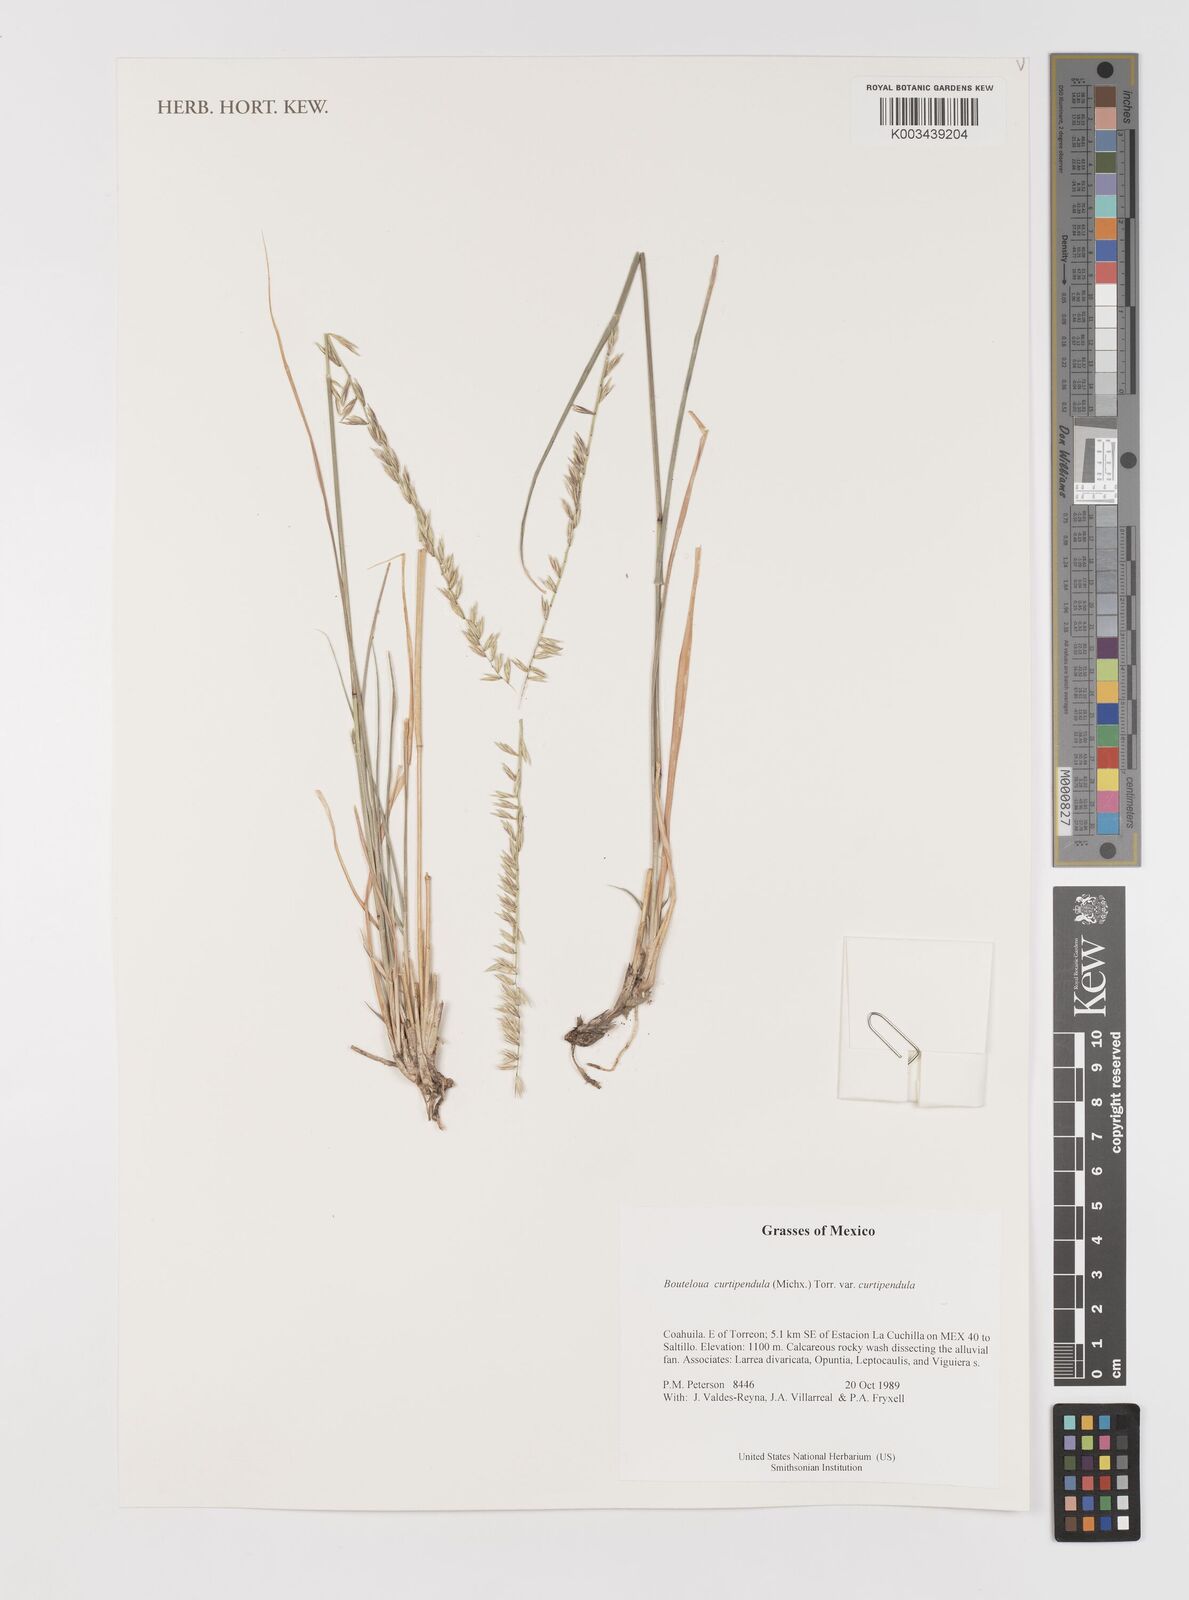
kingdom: Plantae
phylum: Tracheophyta
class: Liliopsida
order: Poales
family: Poaceae
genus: Bouteloua
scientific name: Bouteloua curtipendula
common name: Side-oats grama
